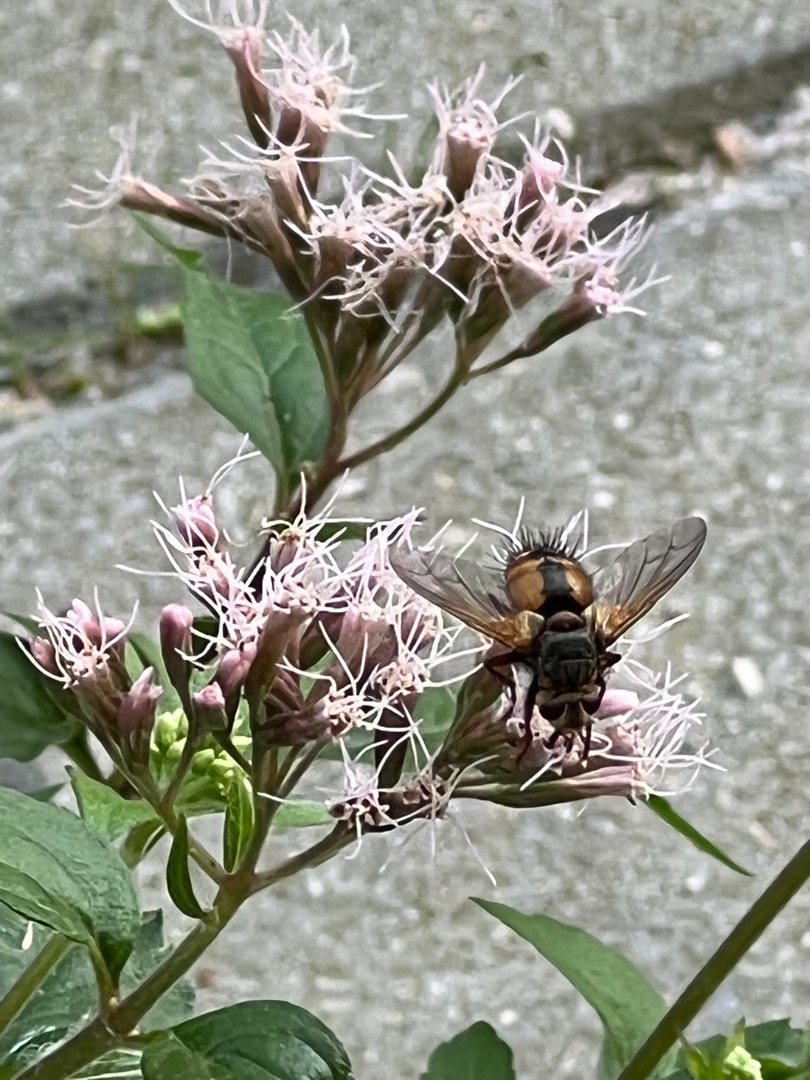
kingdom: Animalia
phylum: Arthropoda
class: Insecta
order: Diptera
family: Tachinidae
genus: Tachina
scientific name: Tachina fera
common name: Mellemfluen oskar
